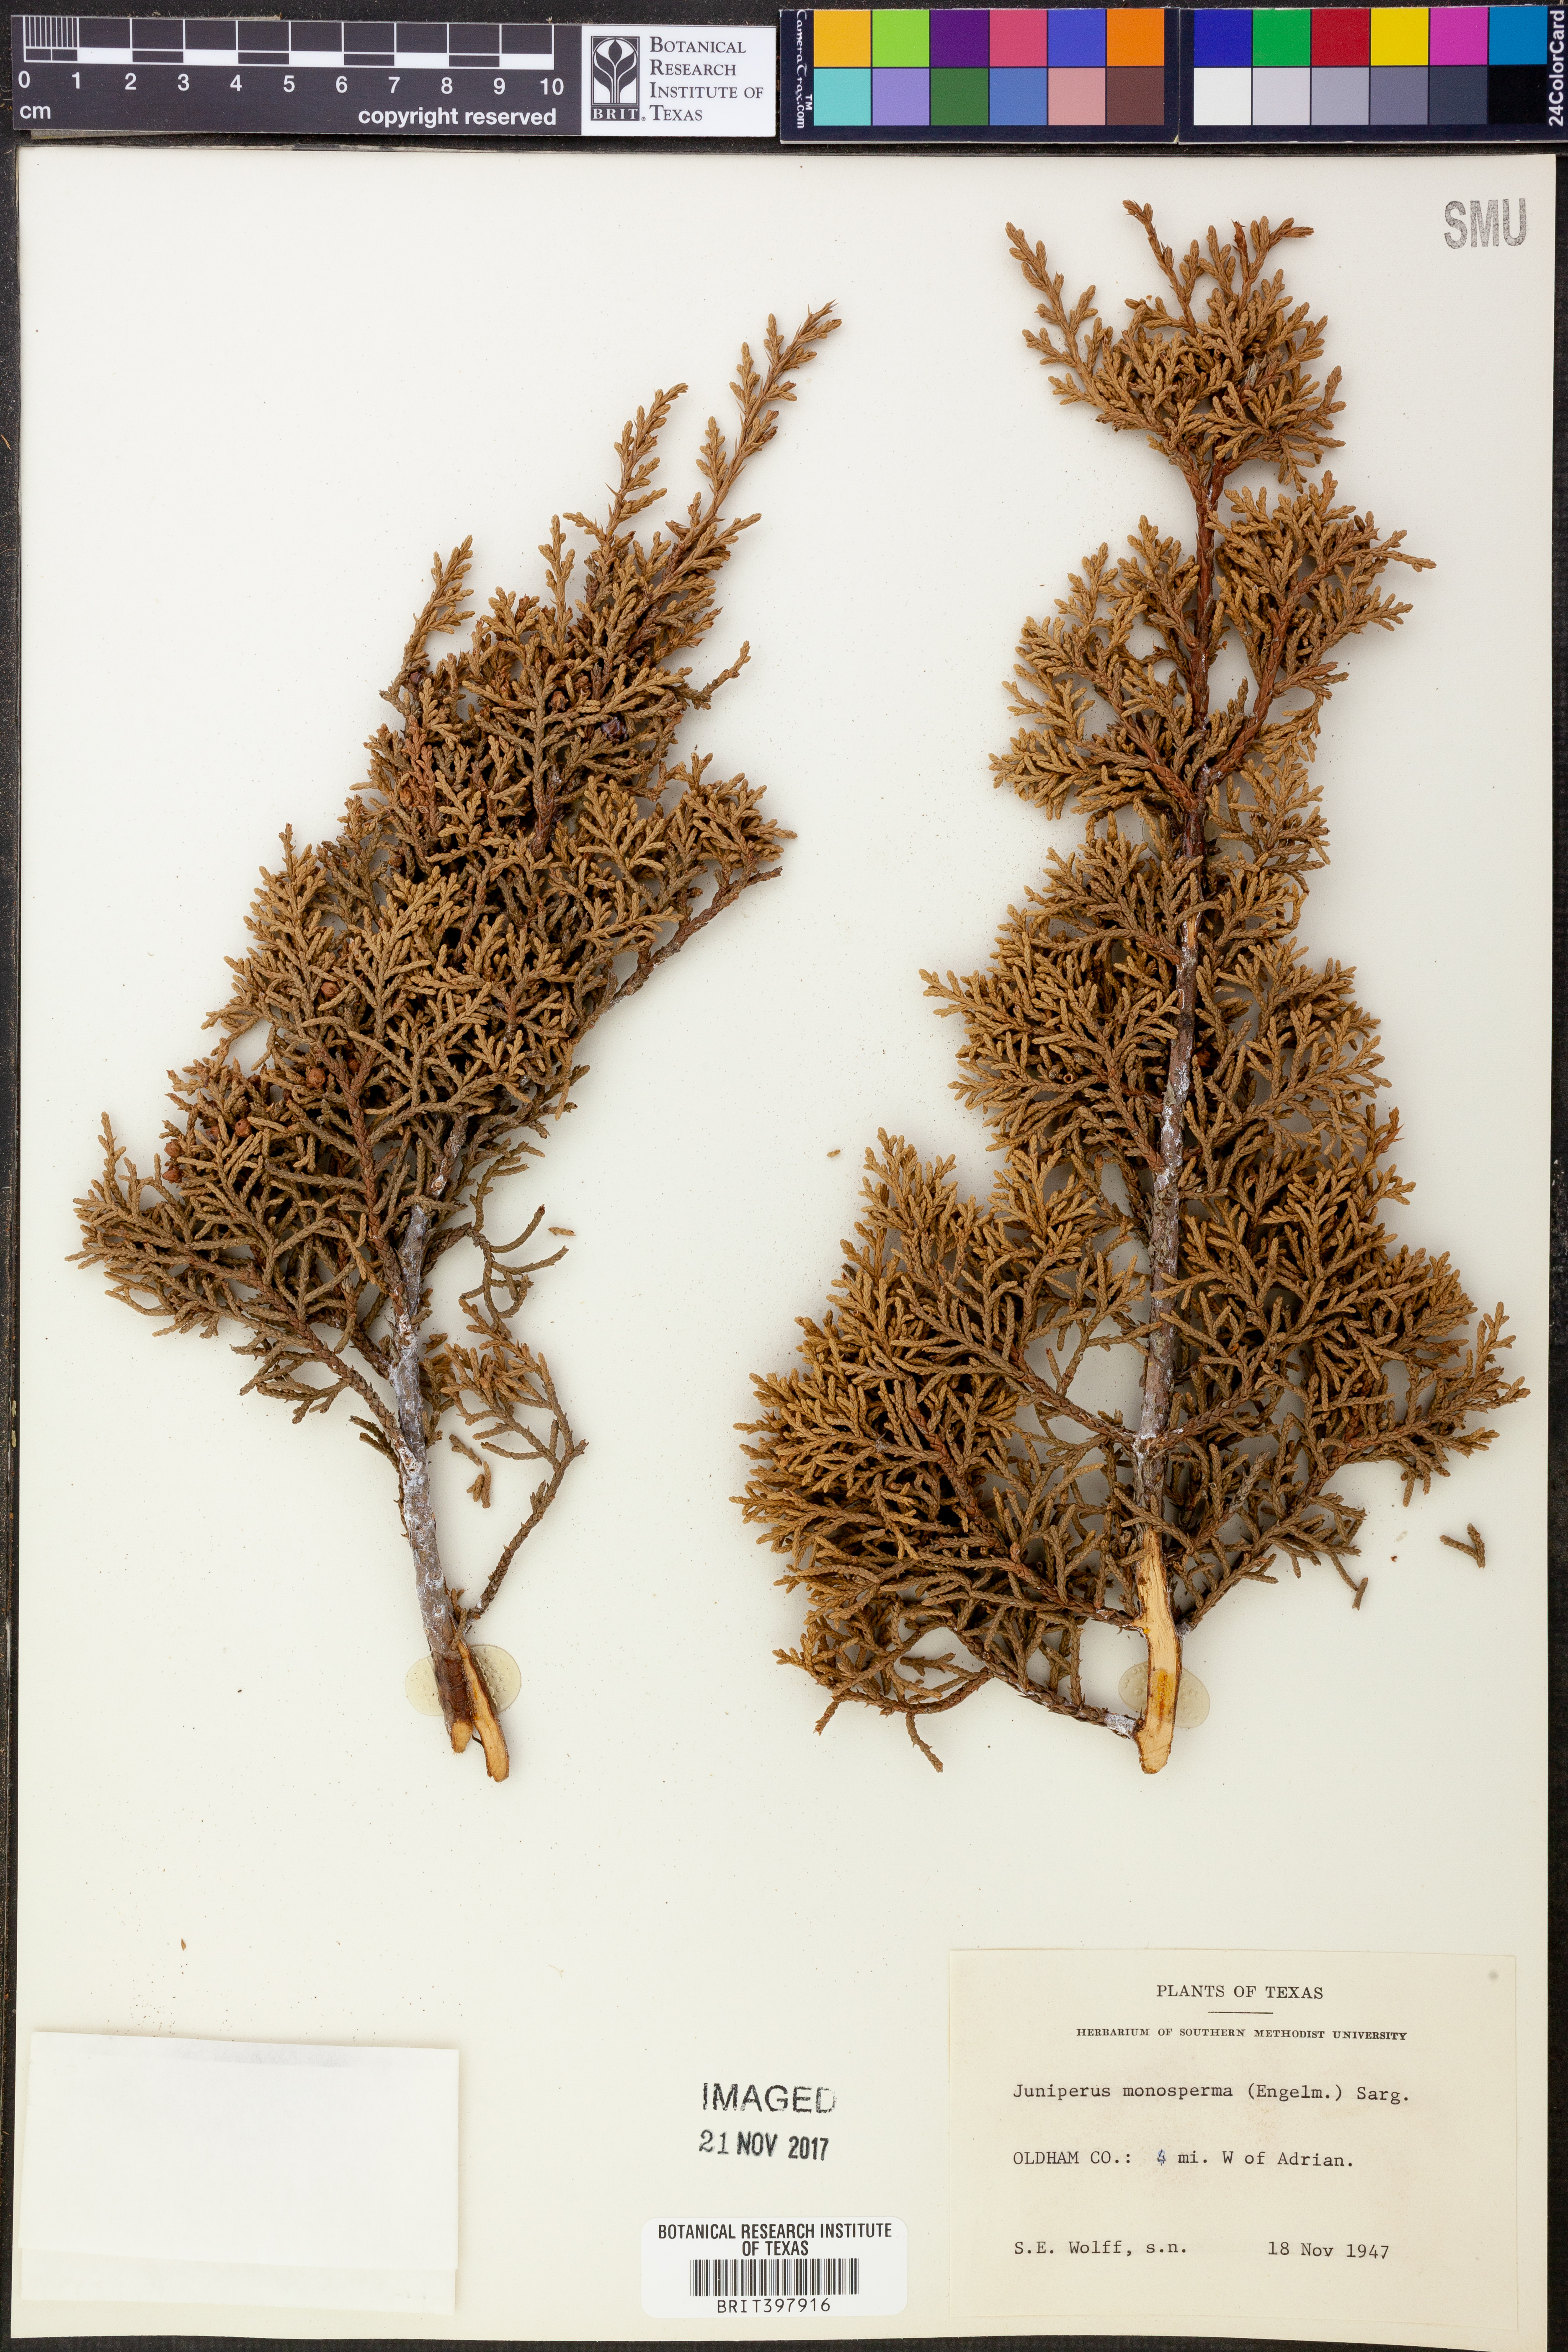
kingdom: Plantae
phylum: Tracheophyta
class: Pinopsida
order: Pinales
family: Cupressaceae
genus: Juniperus
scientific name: Juniperus monosperma
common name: One-seed juniper
